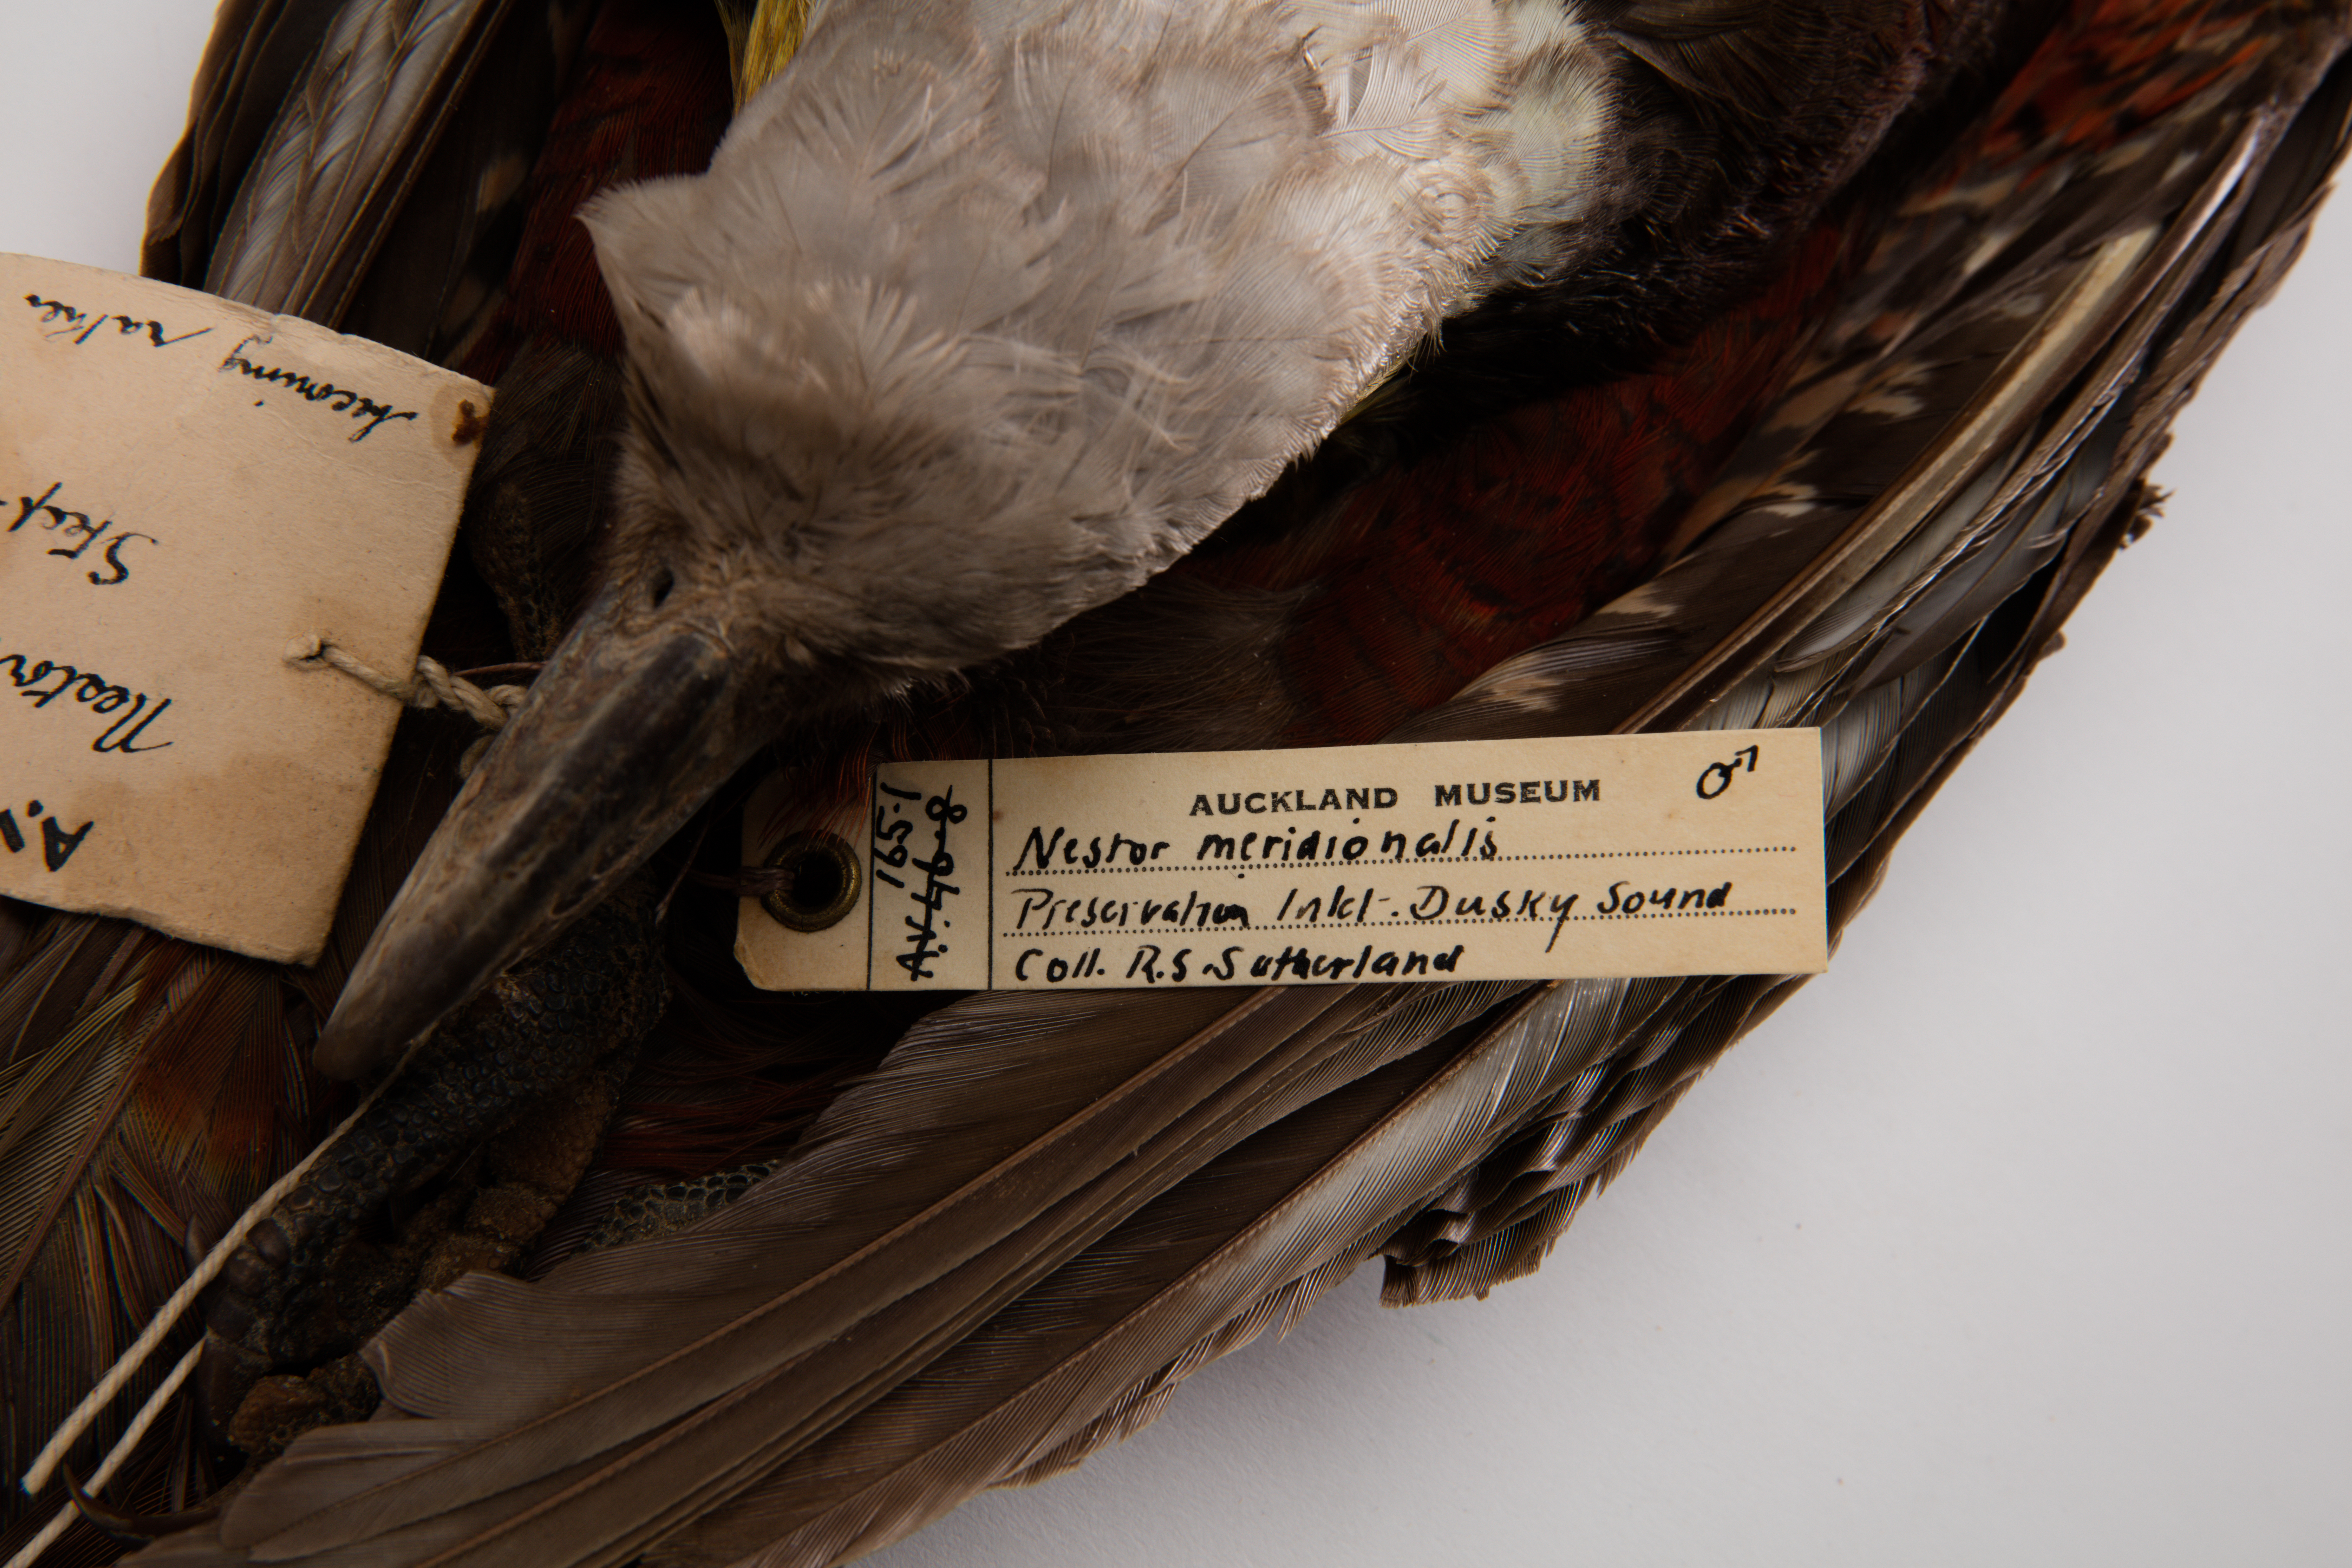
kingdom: Animalia
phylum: Chordata
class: Aves
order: Psittaciformes
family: Psittacidae
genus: Nestor
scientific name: Nestor meridionalis
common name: New zealand kaka
